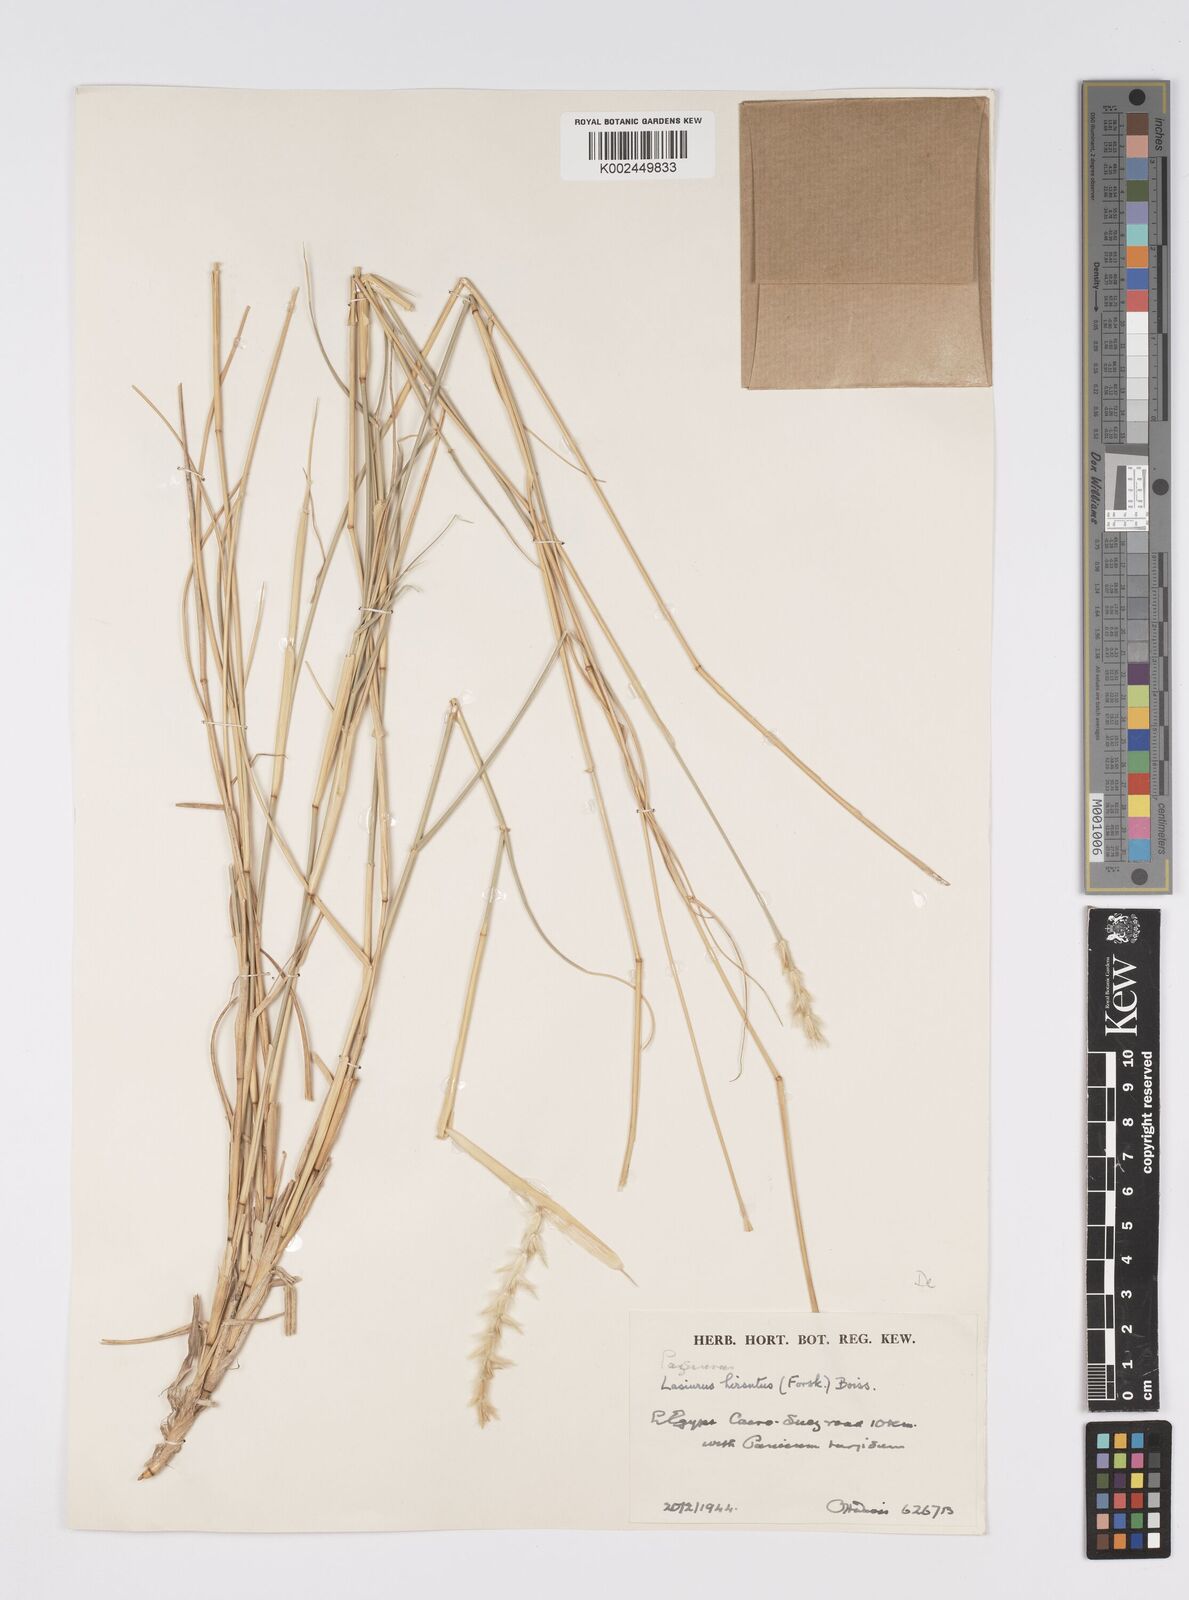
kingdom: Plantae
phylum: Tracheophyta
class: Liliopsida
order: Poales
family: Poaceae
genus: Lasiurus
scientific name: Lasiurus scindicus
